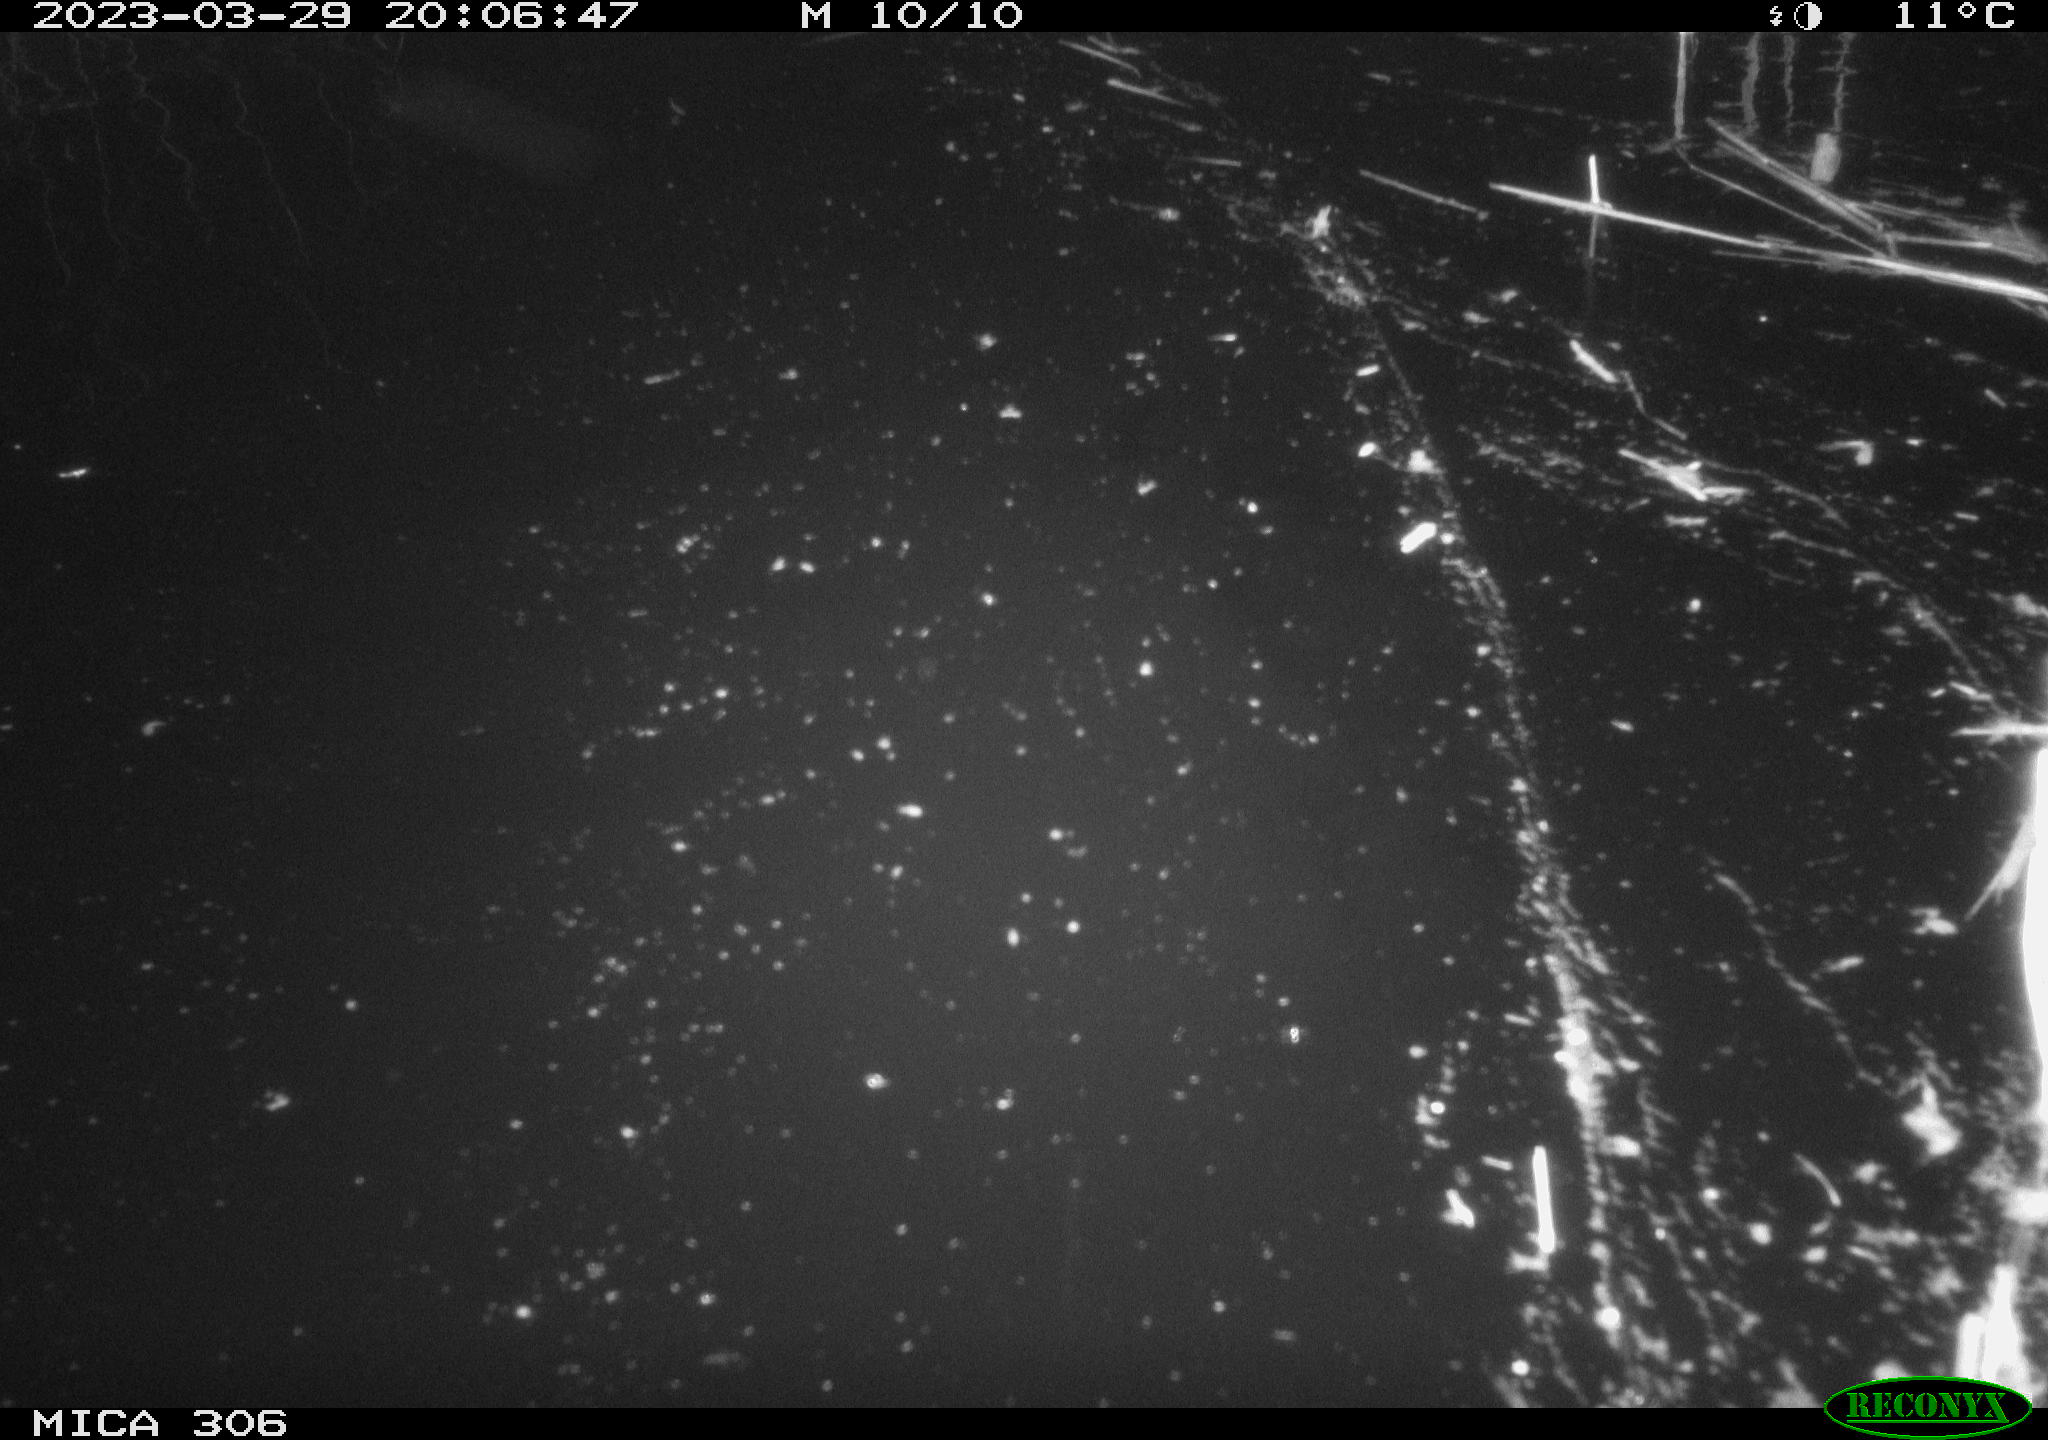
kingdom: Animalia
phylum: Chordata
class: Mammalia
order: Rodentia
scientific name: Rodentia
